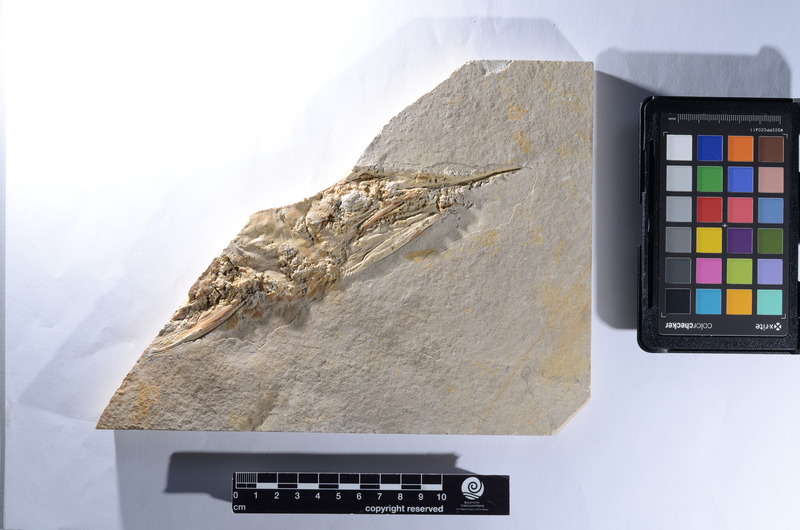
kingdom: Animalia
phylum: Chordata
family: Aspidorhynchidae
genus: Aspidorhynchus
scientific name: Aspidorhynchus
